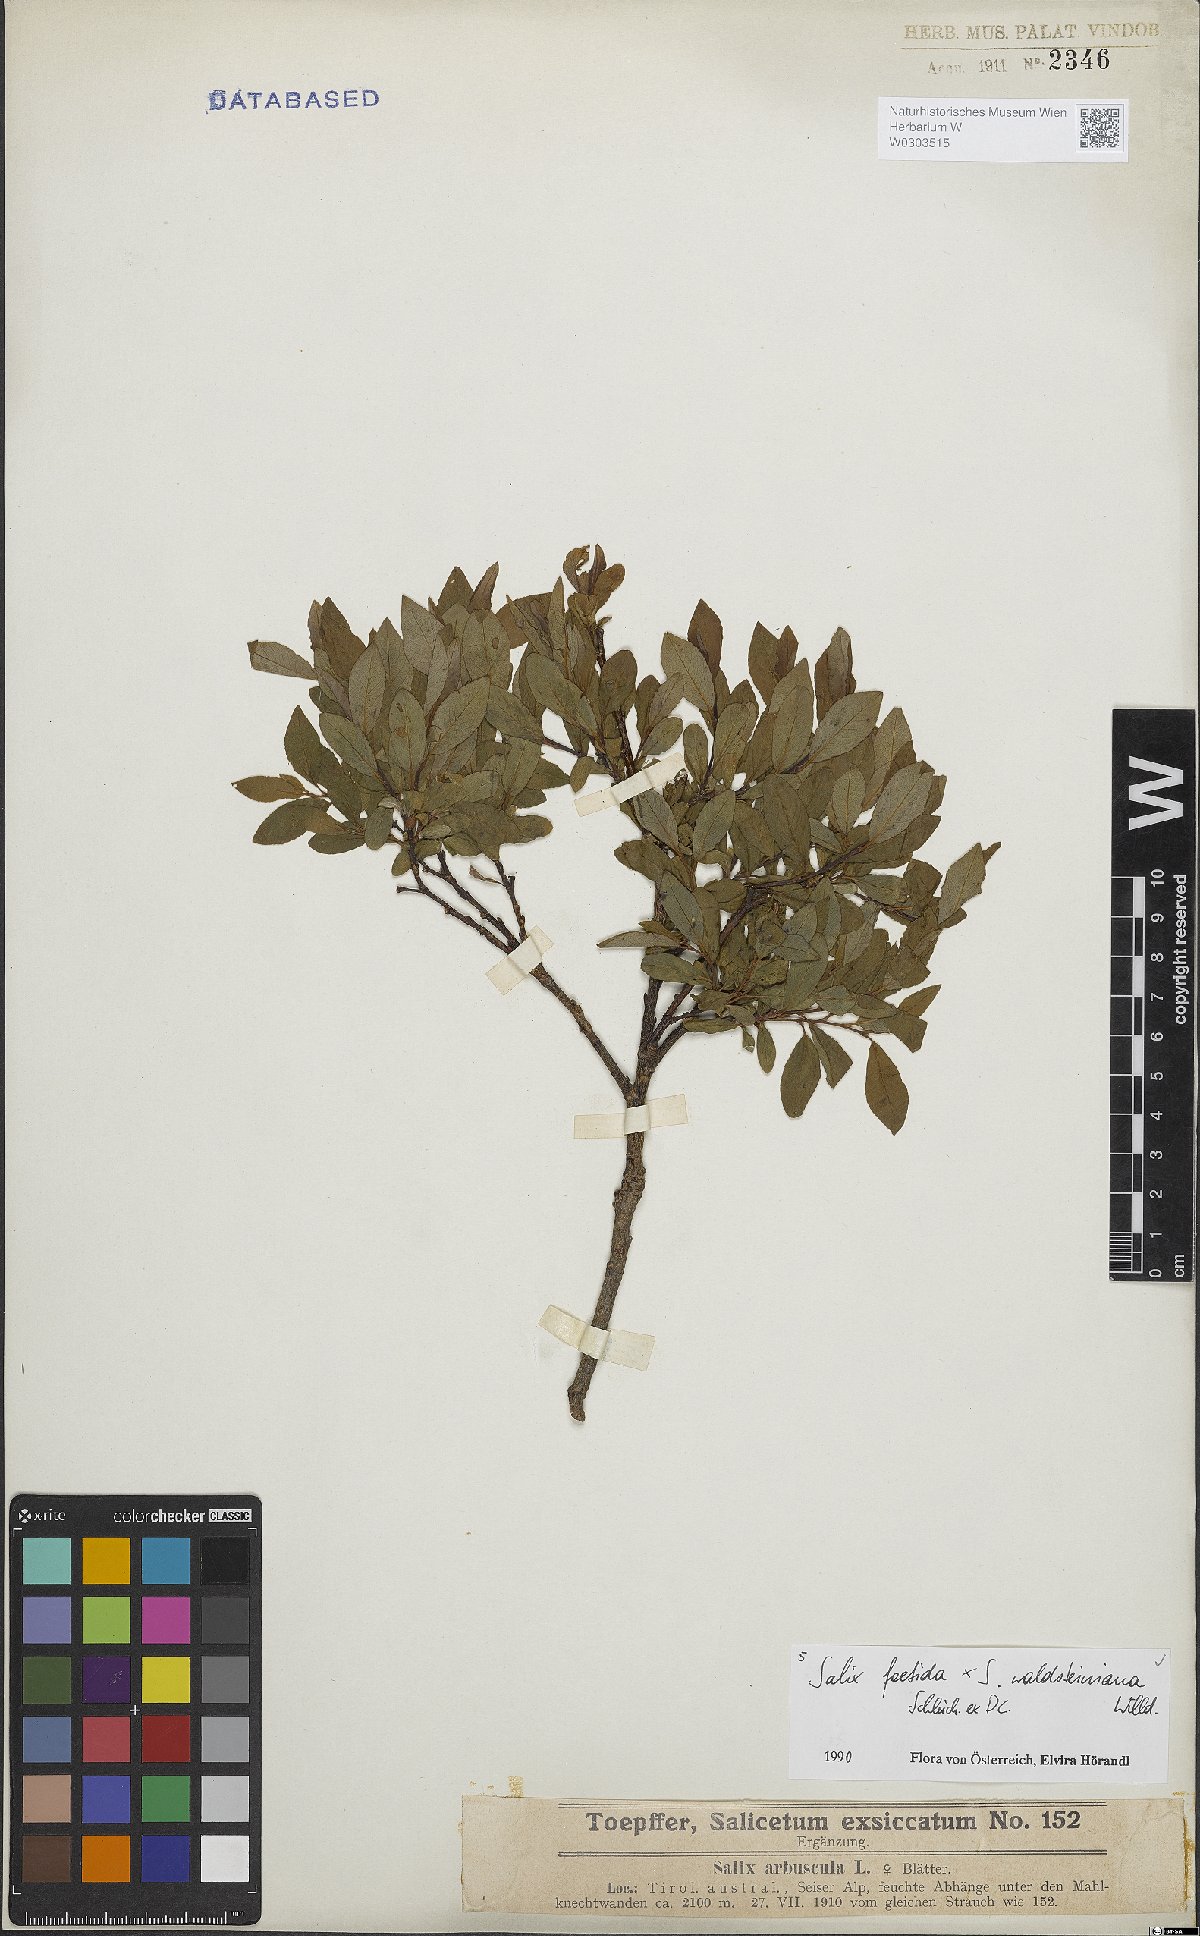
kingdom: Plantae
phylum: Tracheophyta
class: Magnoliopsida
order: Malpighiales
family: Salicaceae
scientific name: Salicaceae
